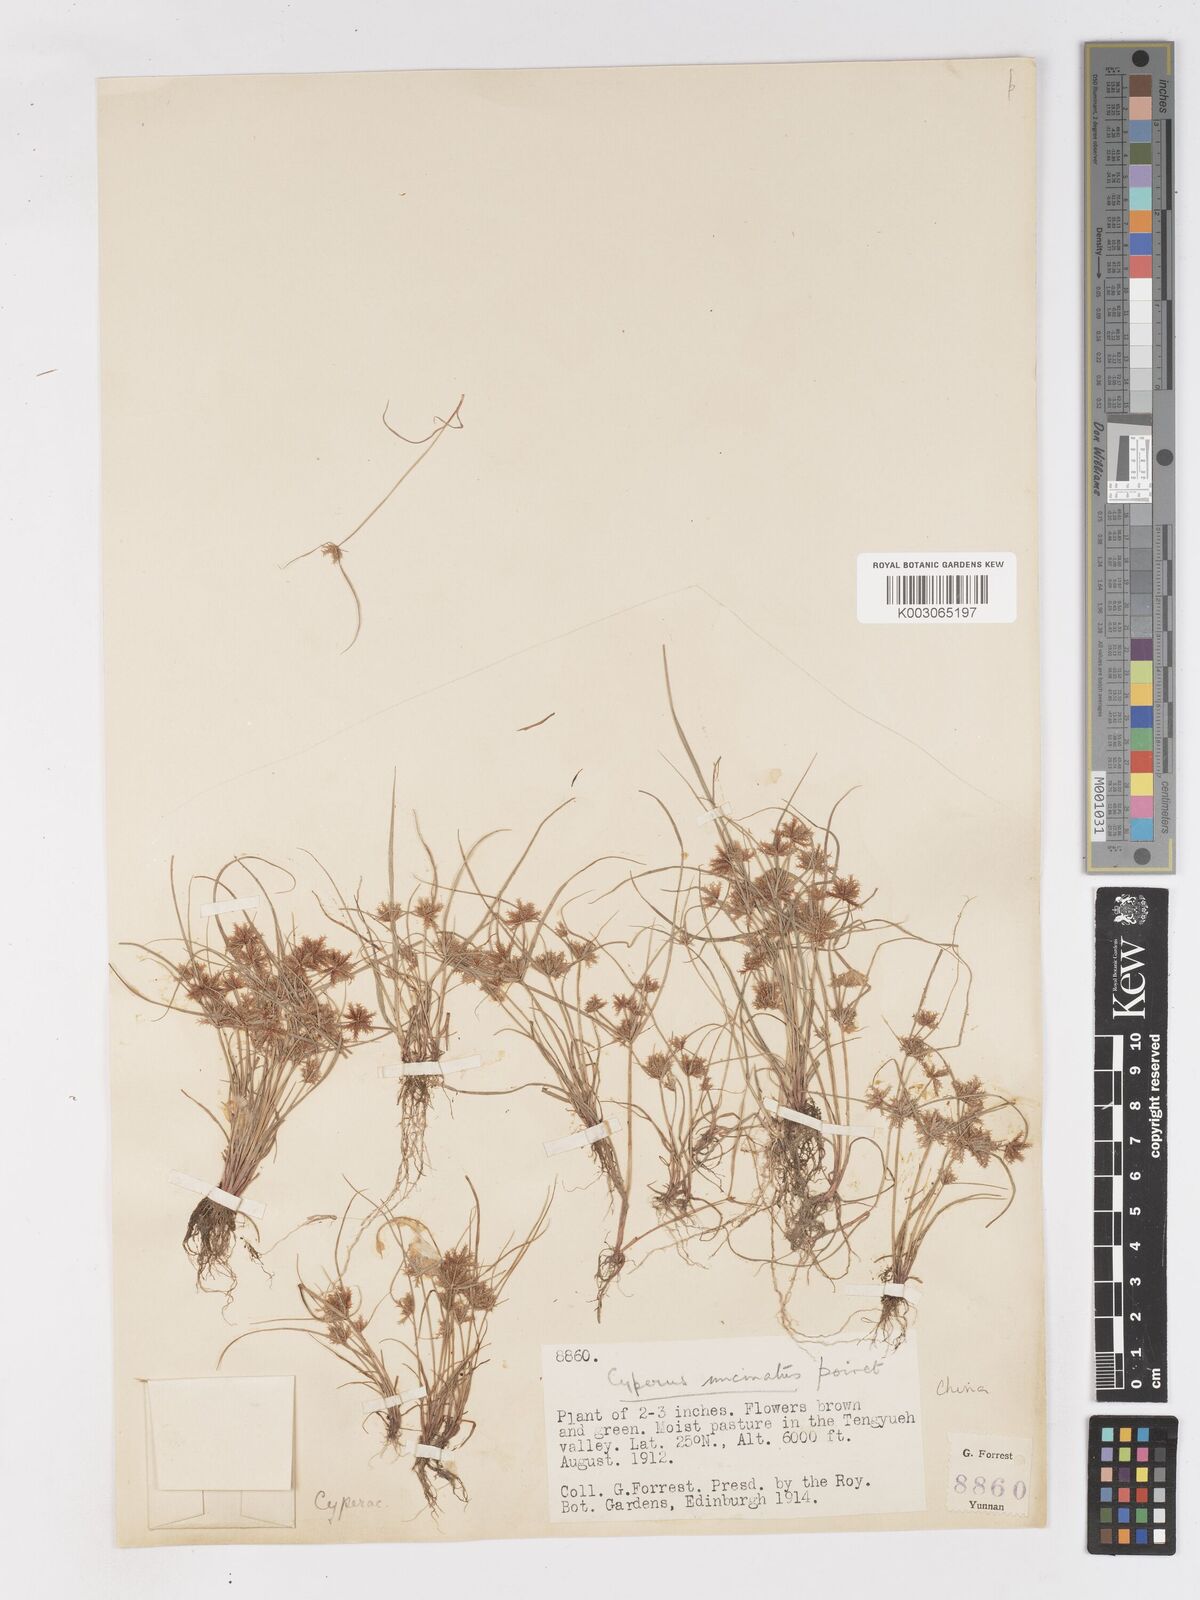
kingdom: Plantae
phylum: Tracheophyta
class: Liliopsida
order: Poales
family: Cyperaceae
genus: Cyperus
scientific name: Cyperus cuspidatus
